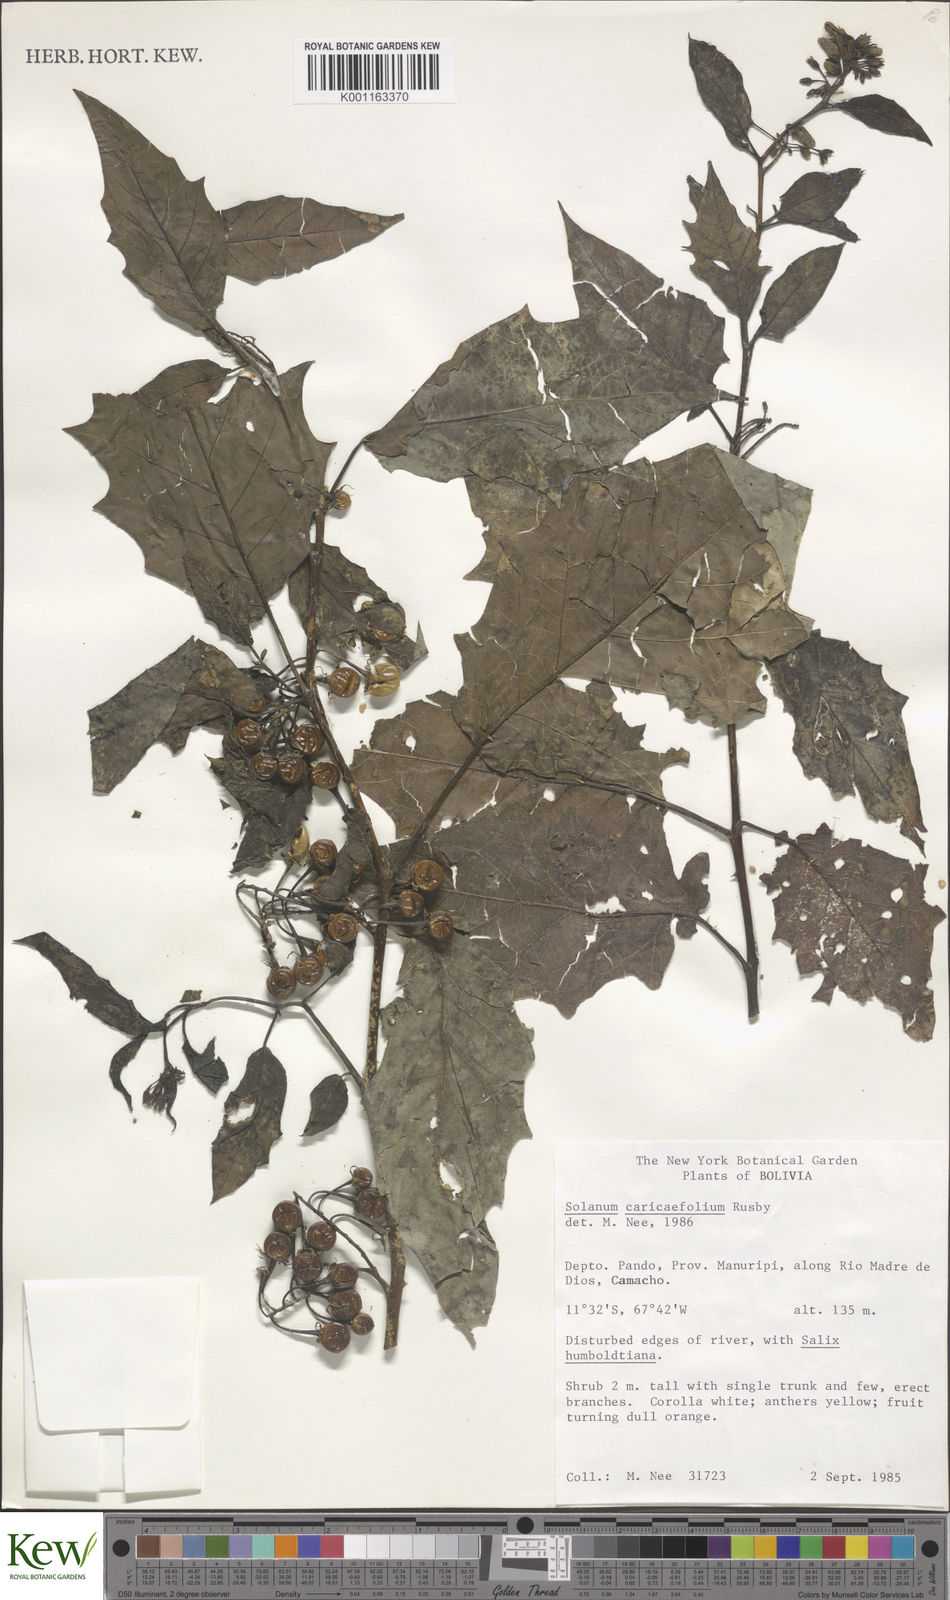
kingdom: Plantae
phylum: Tracheophyta
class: Magnoliopsida
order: Solanales
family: Solanaceae
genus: Solanum
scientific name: Solanum caricaefolium
